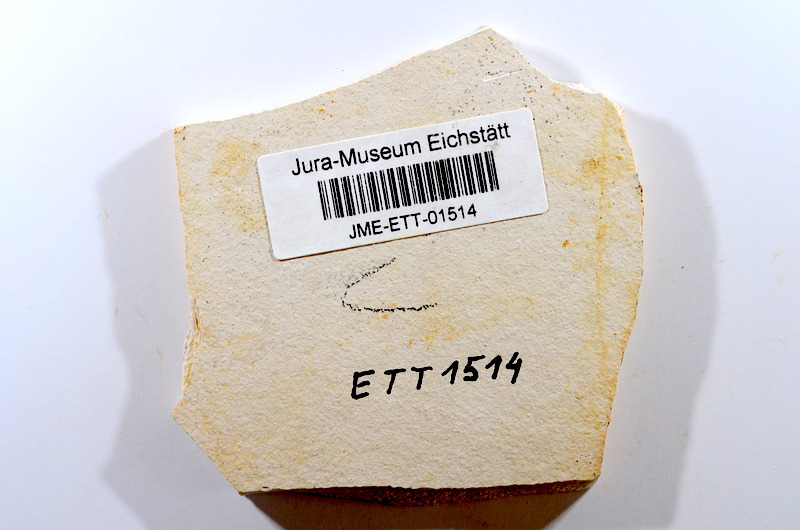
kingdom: Animalia
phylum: Chordata
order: Salmoniformes
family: Orthogonikleithridae
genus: Orthogonikleithrus
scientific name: Orthogonikleithrus hoelli
